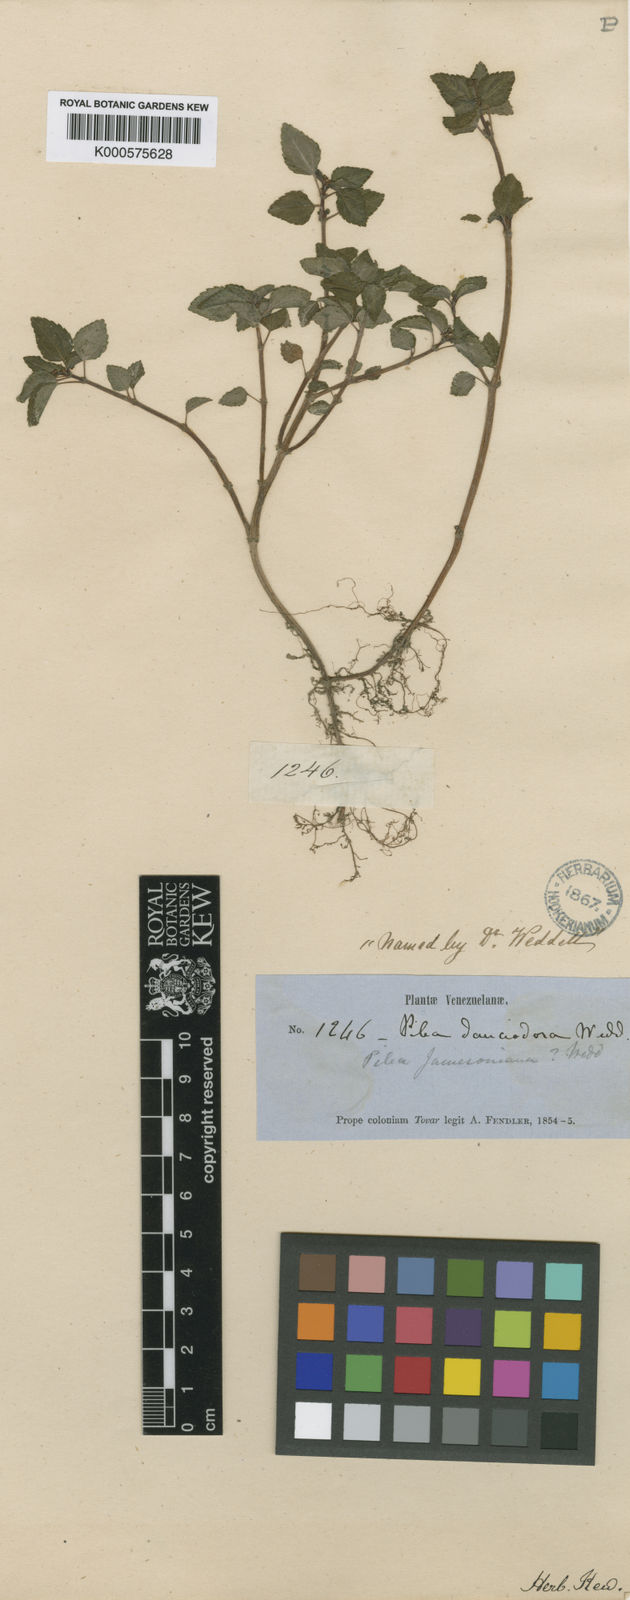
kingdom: Plantae
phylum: Tracheophyta
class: Magnoliopsida
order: Rosales
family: Urticaceae
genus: Pilea
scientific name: Pilea dauciodora
